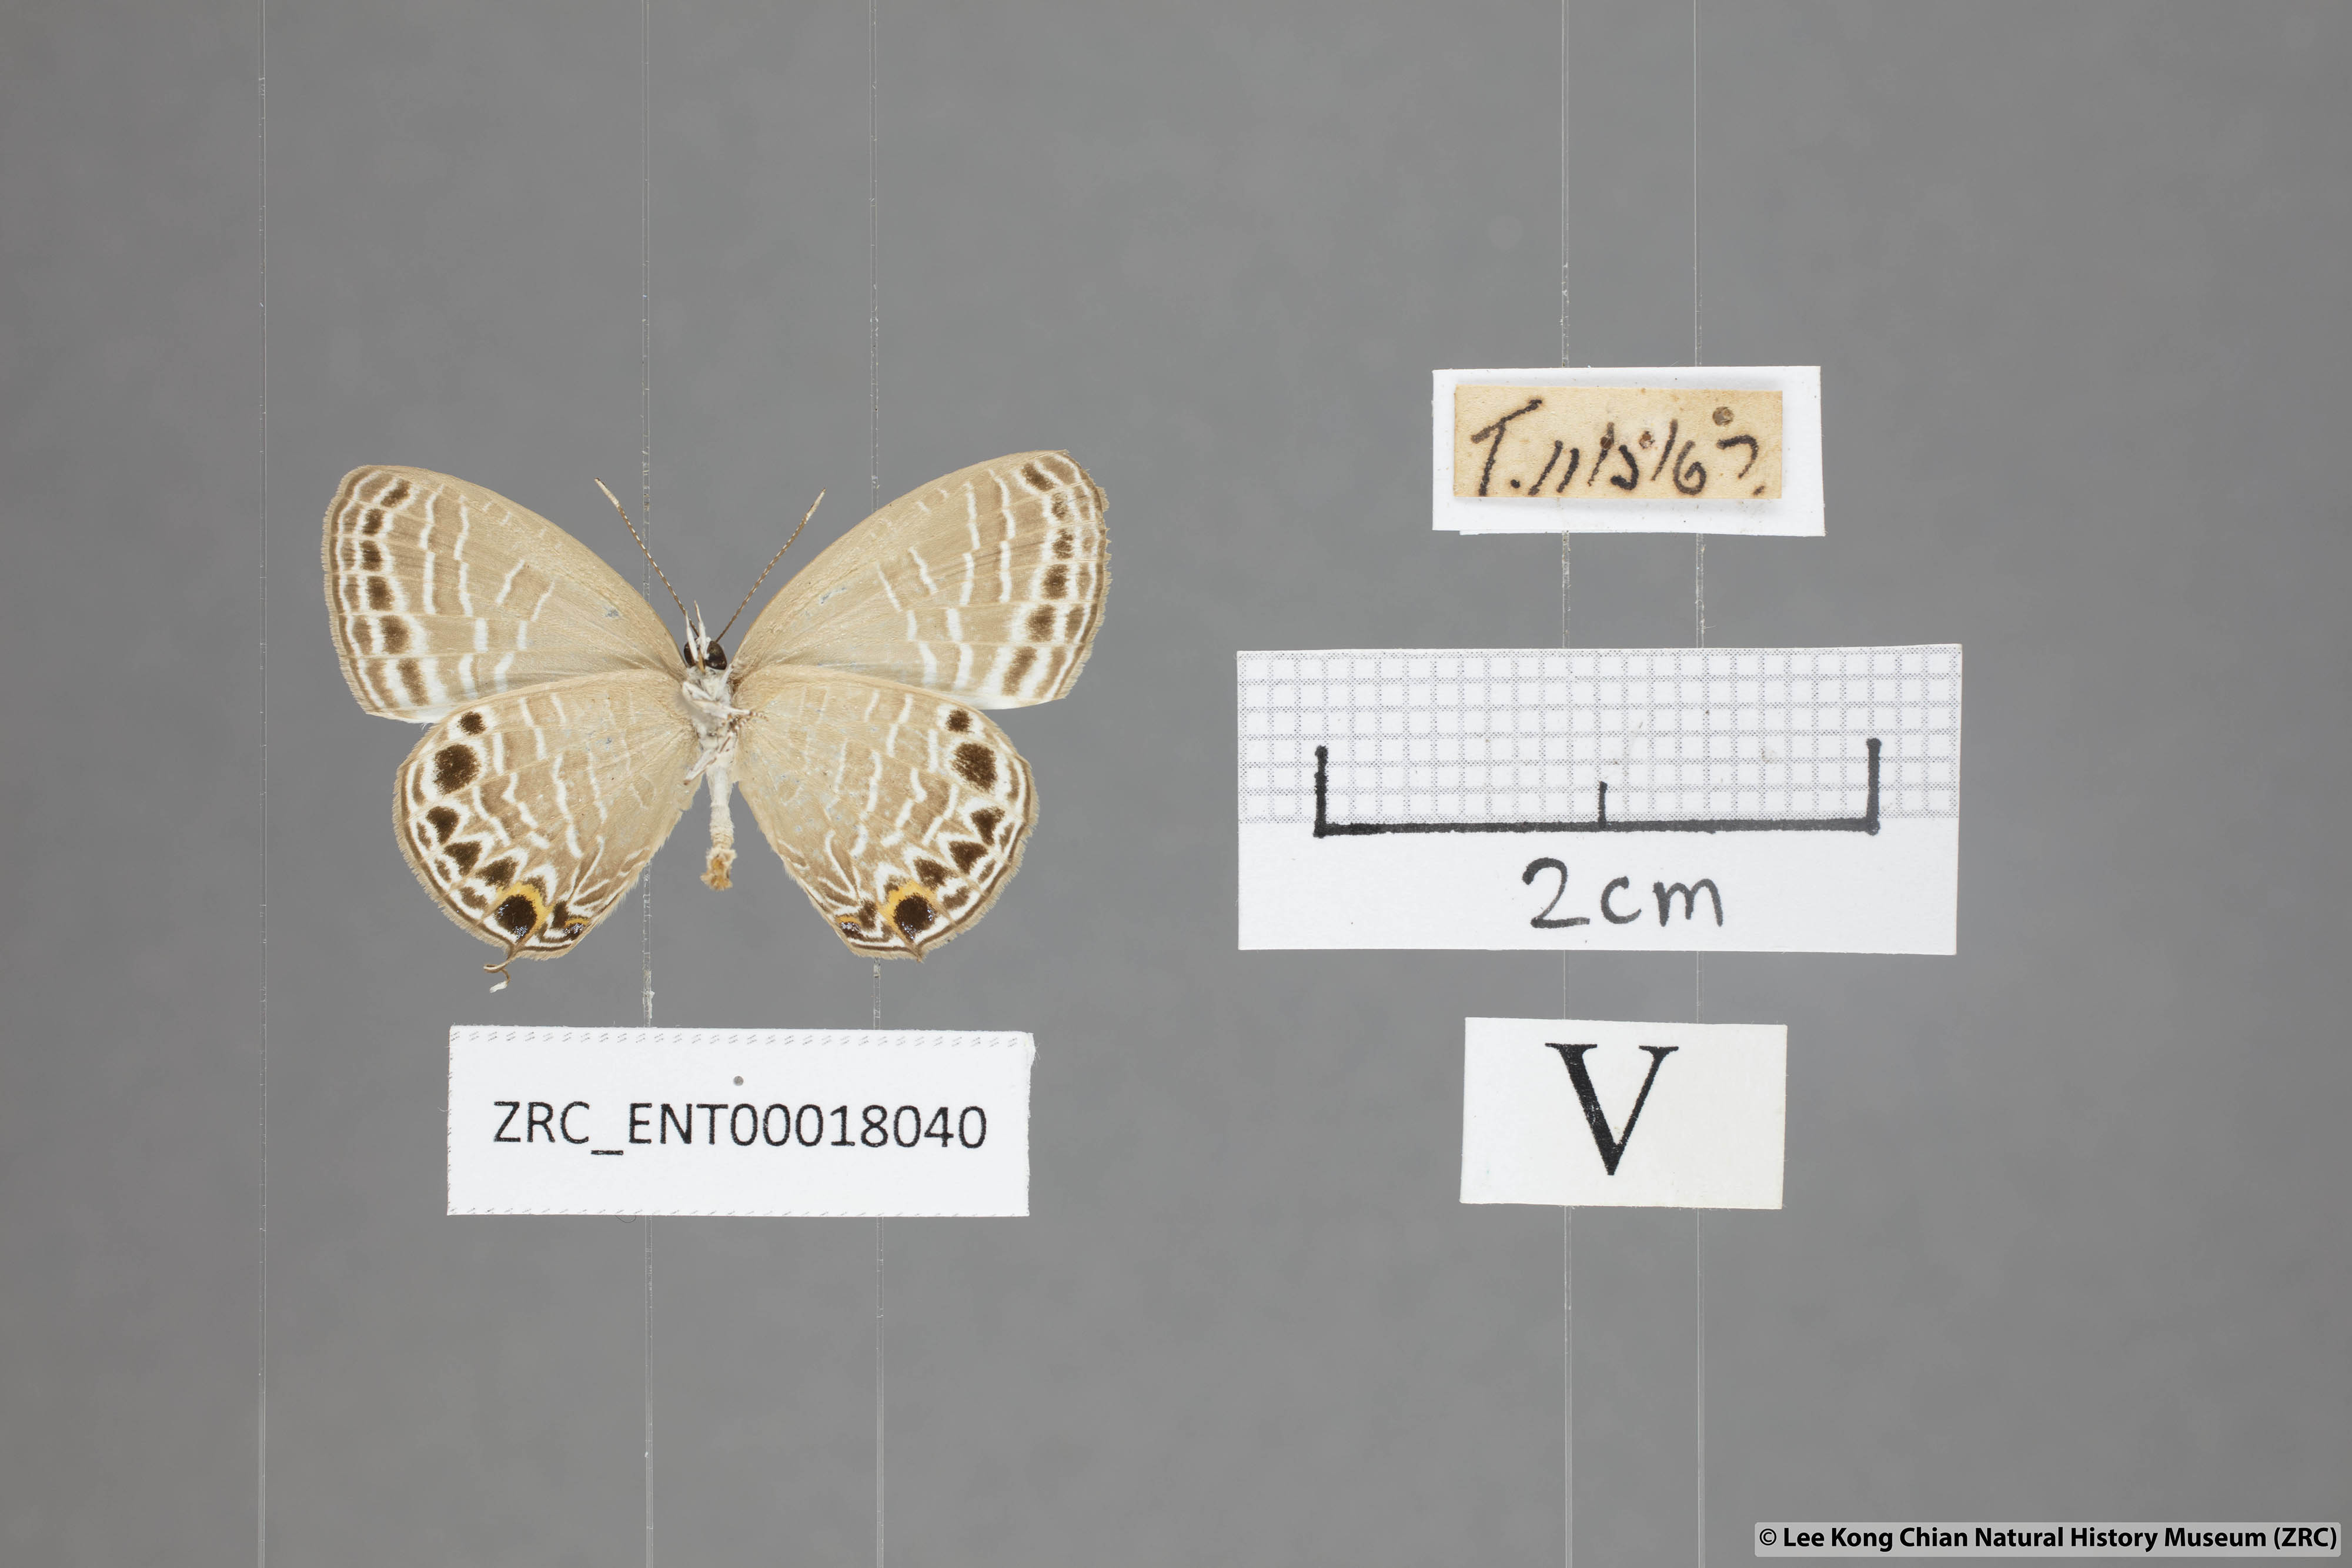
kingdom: Animalia
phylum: Arthropoda
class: Insecta
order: Lepidoptera
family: Lycaenidae
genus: Jamides
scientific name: Jamides aratus
